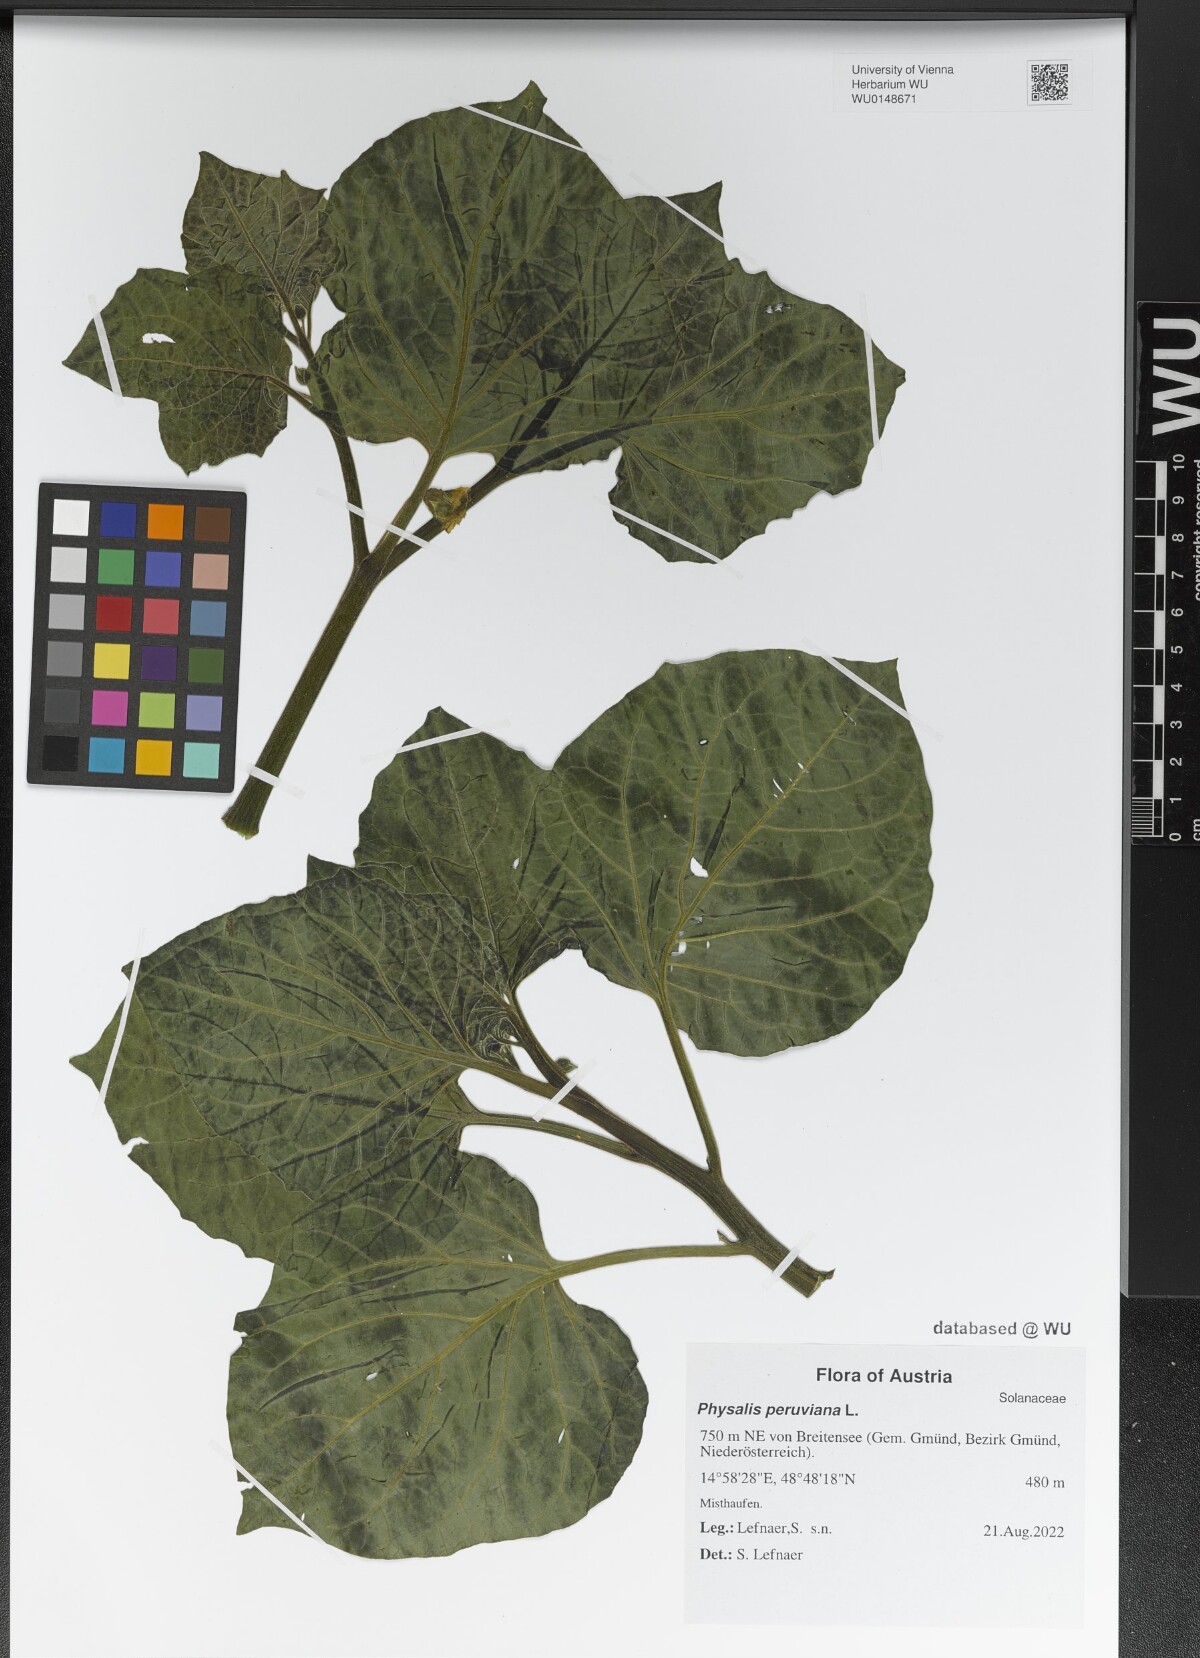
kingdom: Plantae
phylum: Tracheophyta
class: Magnoliopsida
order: Solanales
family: Solanaceae
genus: Physalis
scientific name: Physalis peruviana
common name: Cape-gooseberry
